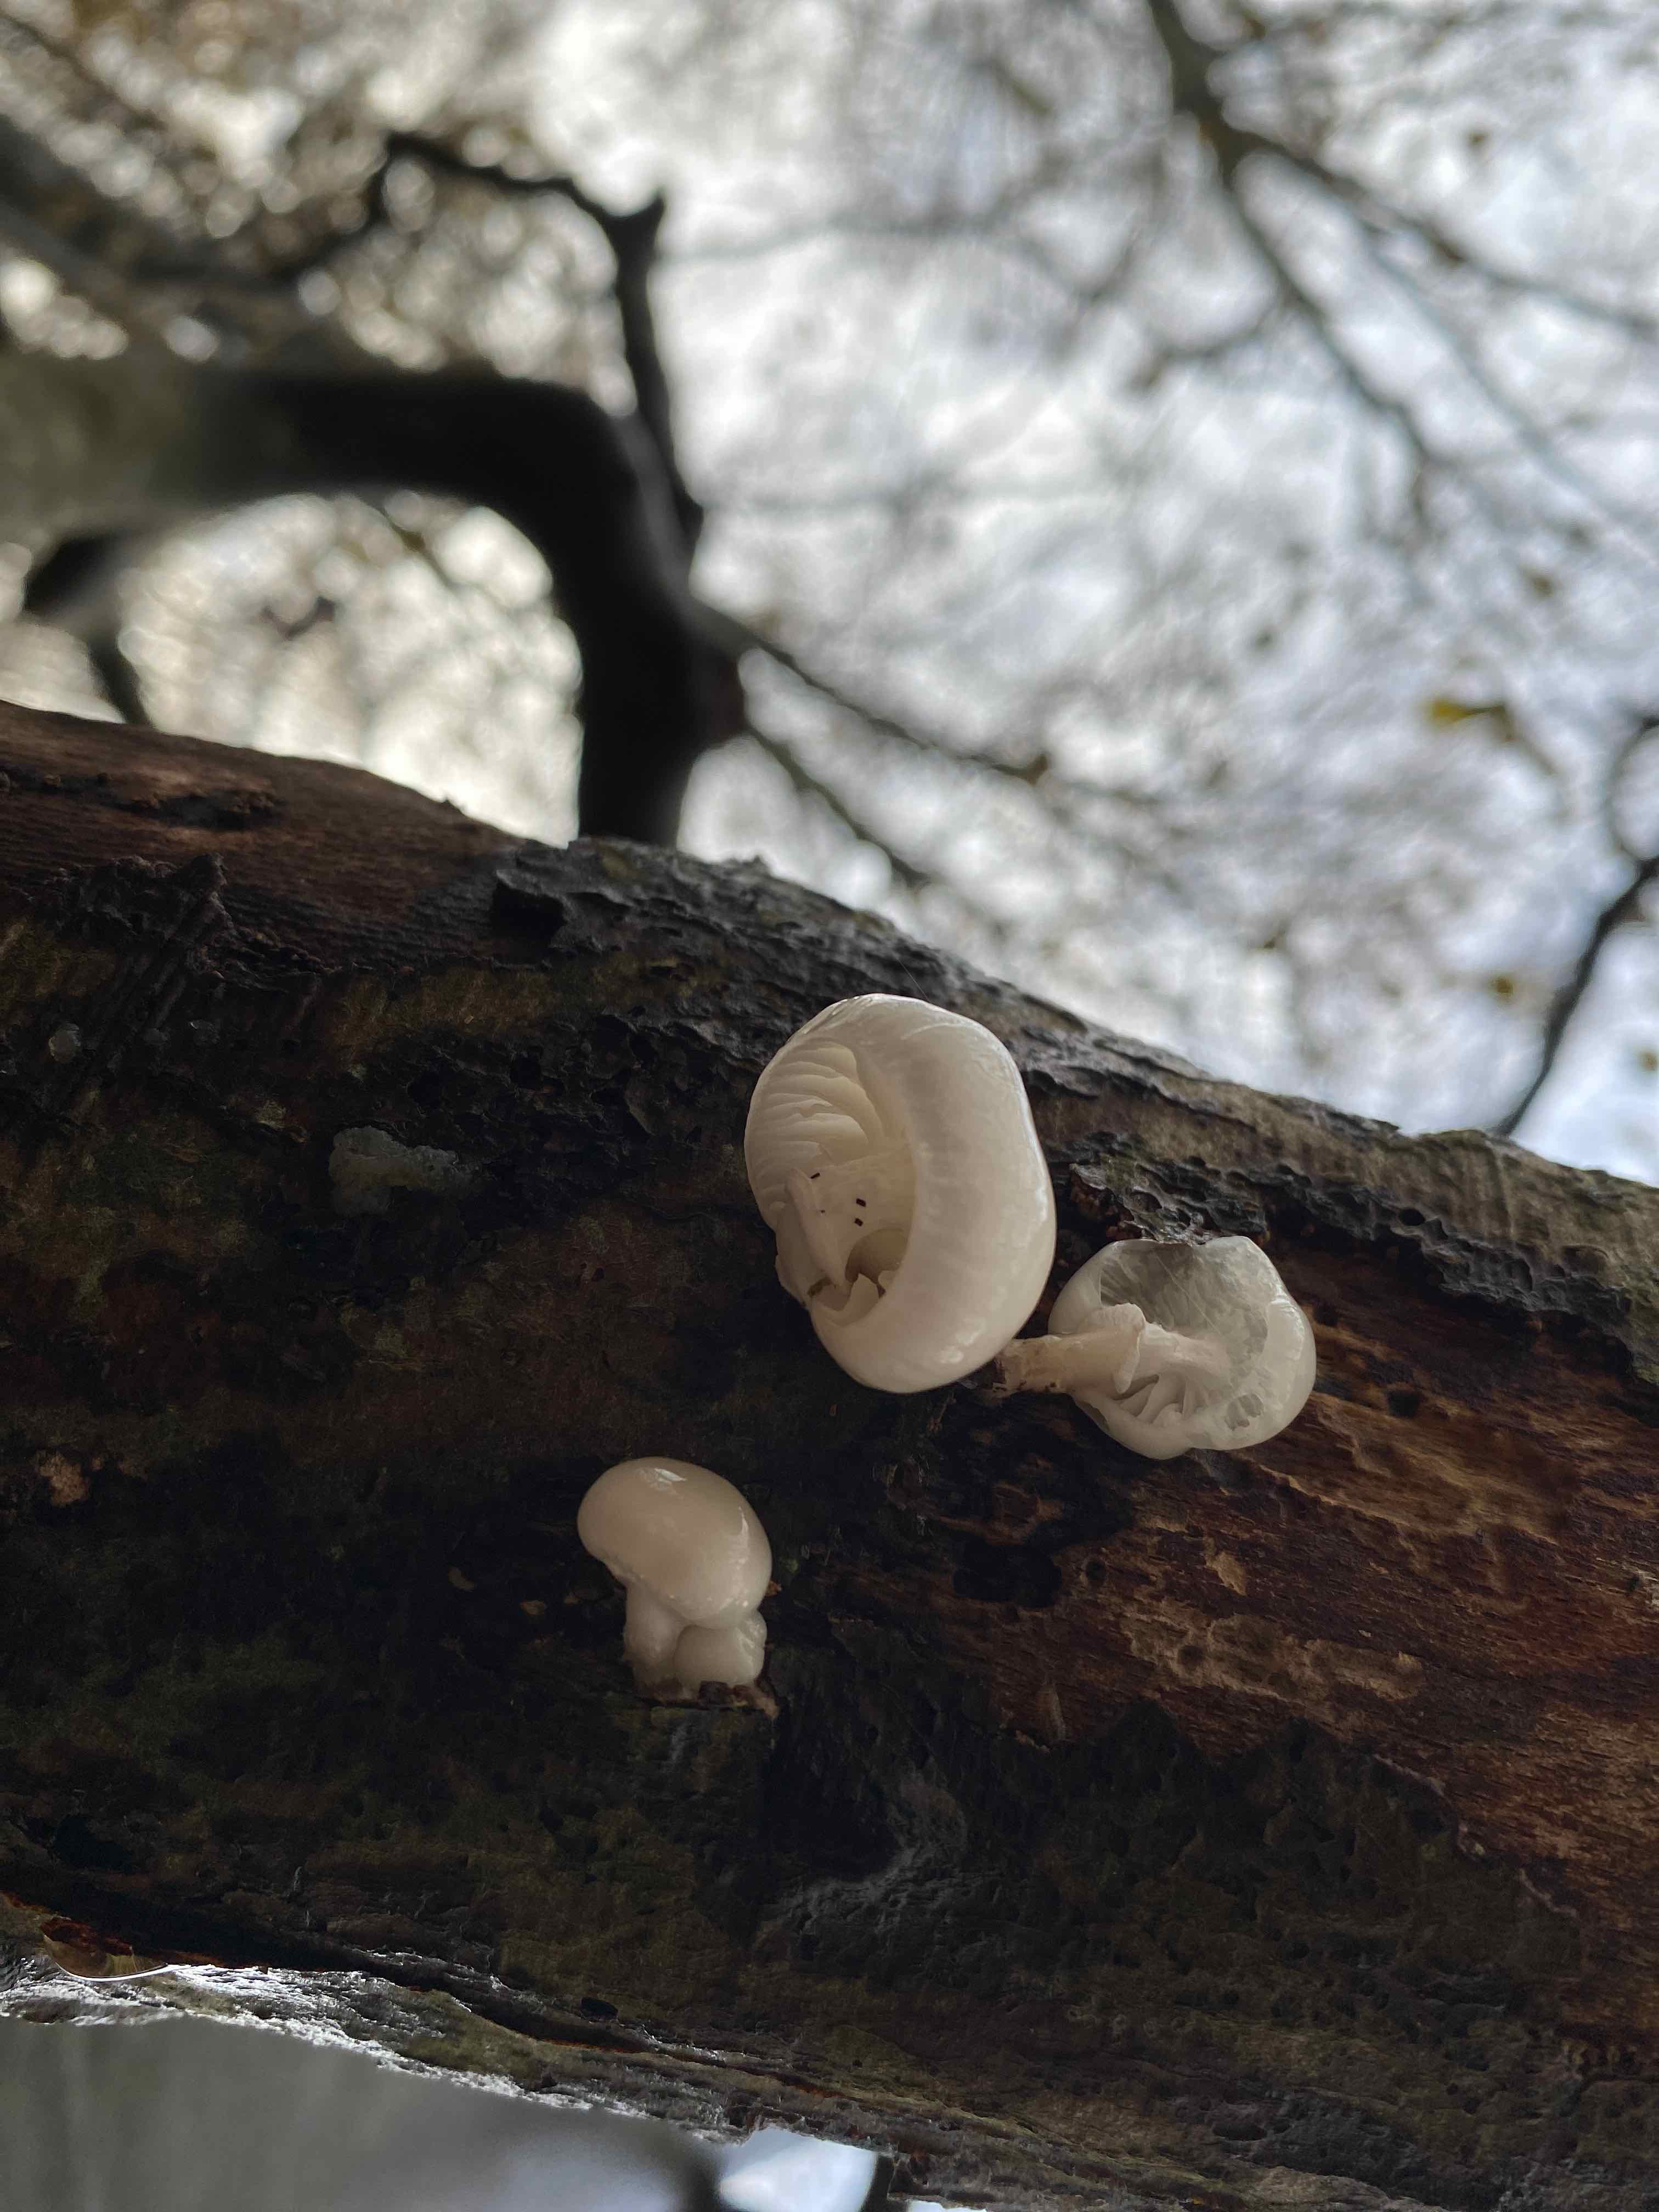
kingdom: Fungi
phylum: Basidiomycota
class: Agaricomycetes
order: Agaricales
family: Physalacriaceae
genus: Mucidula
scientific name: Mucidula mucida
